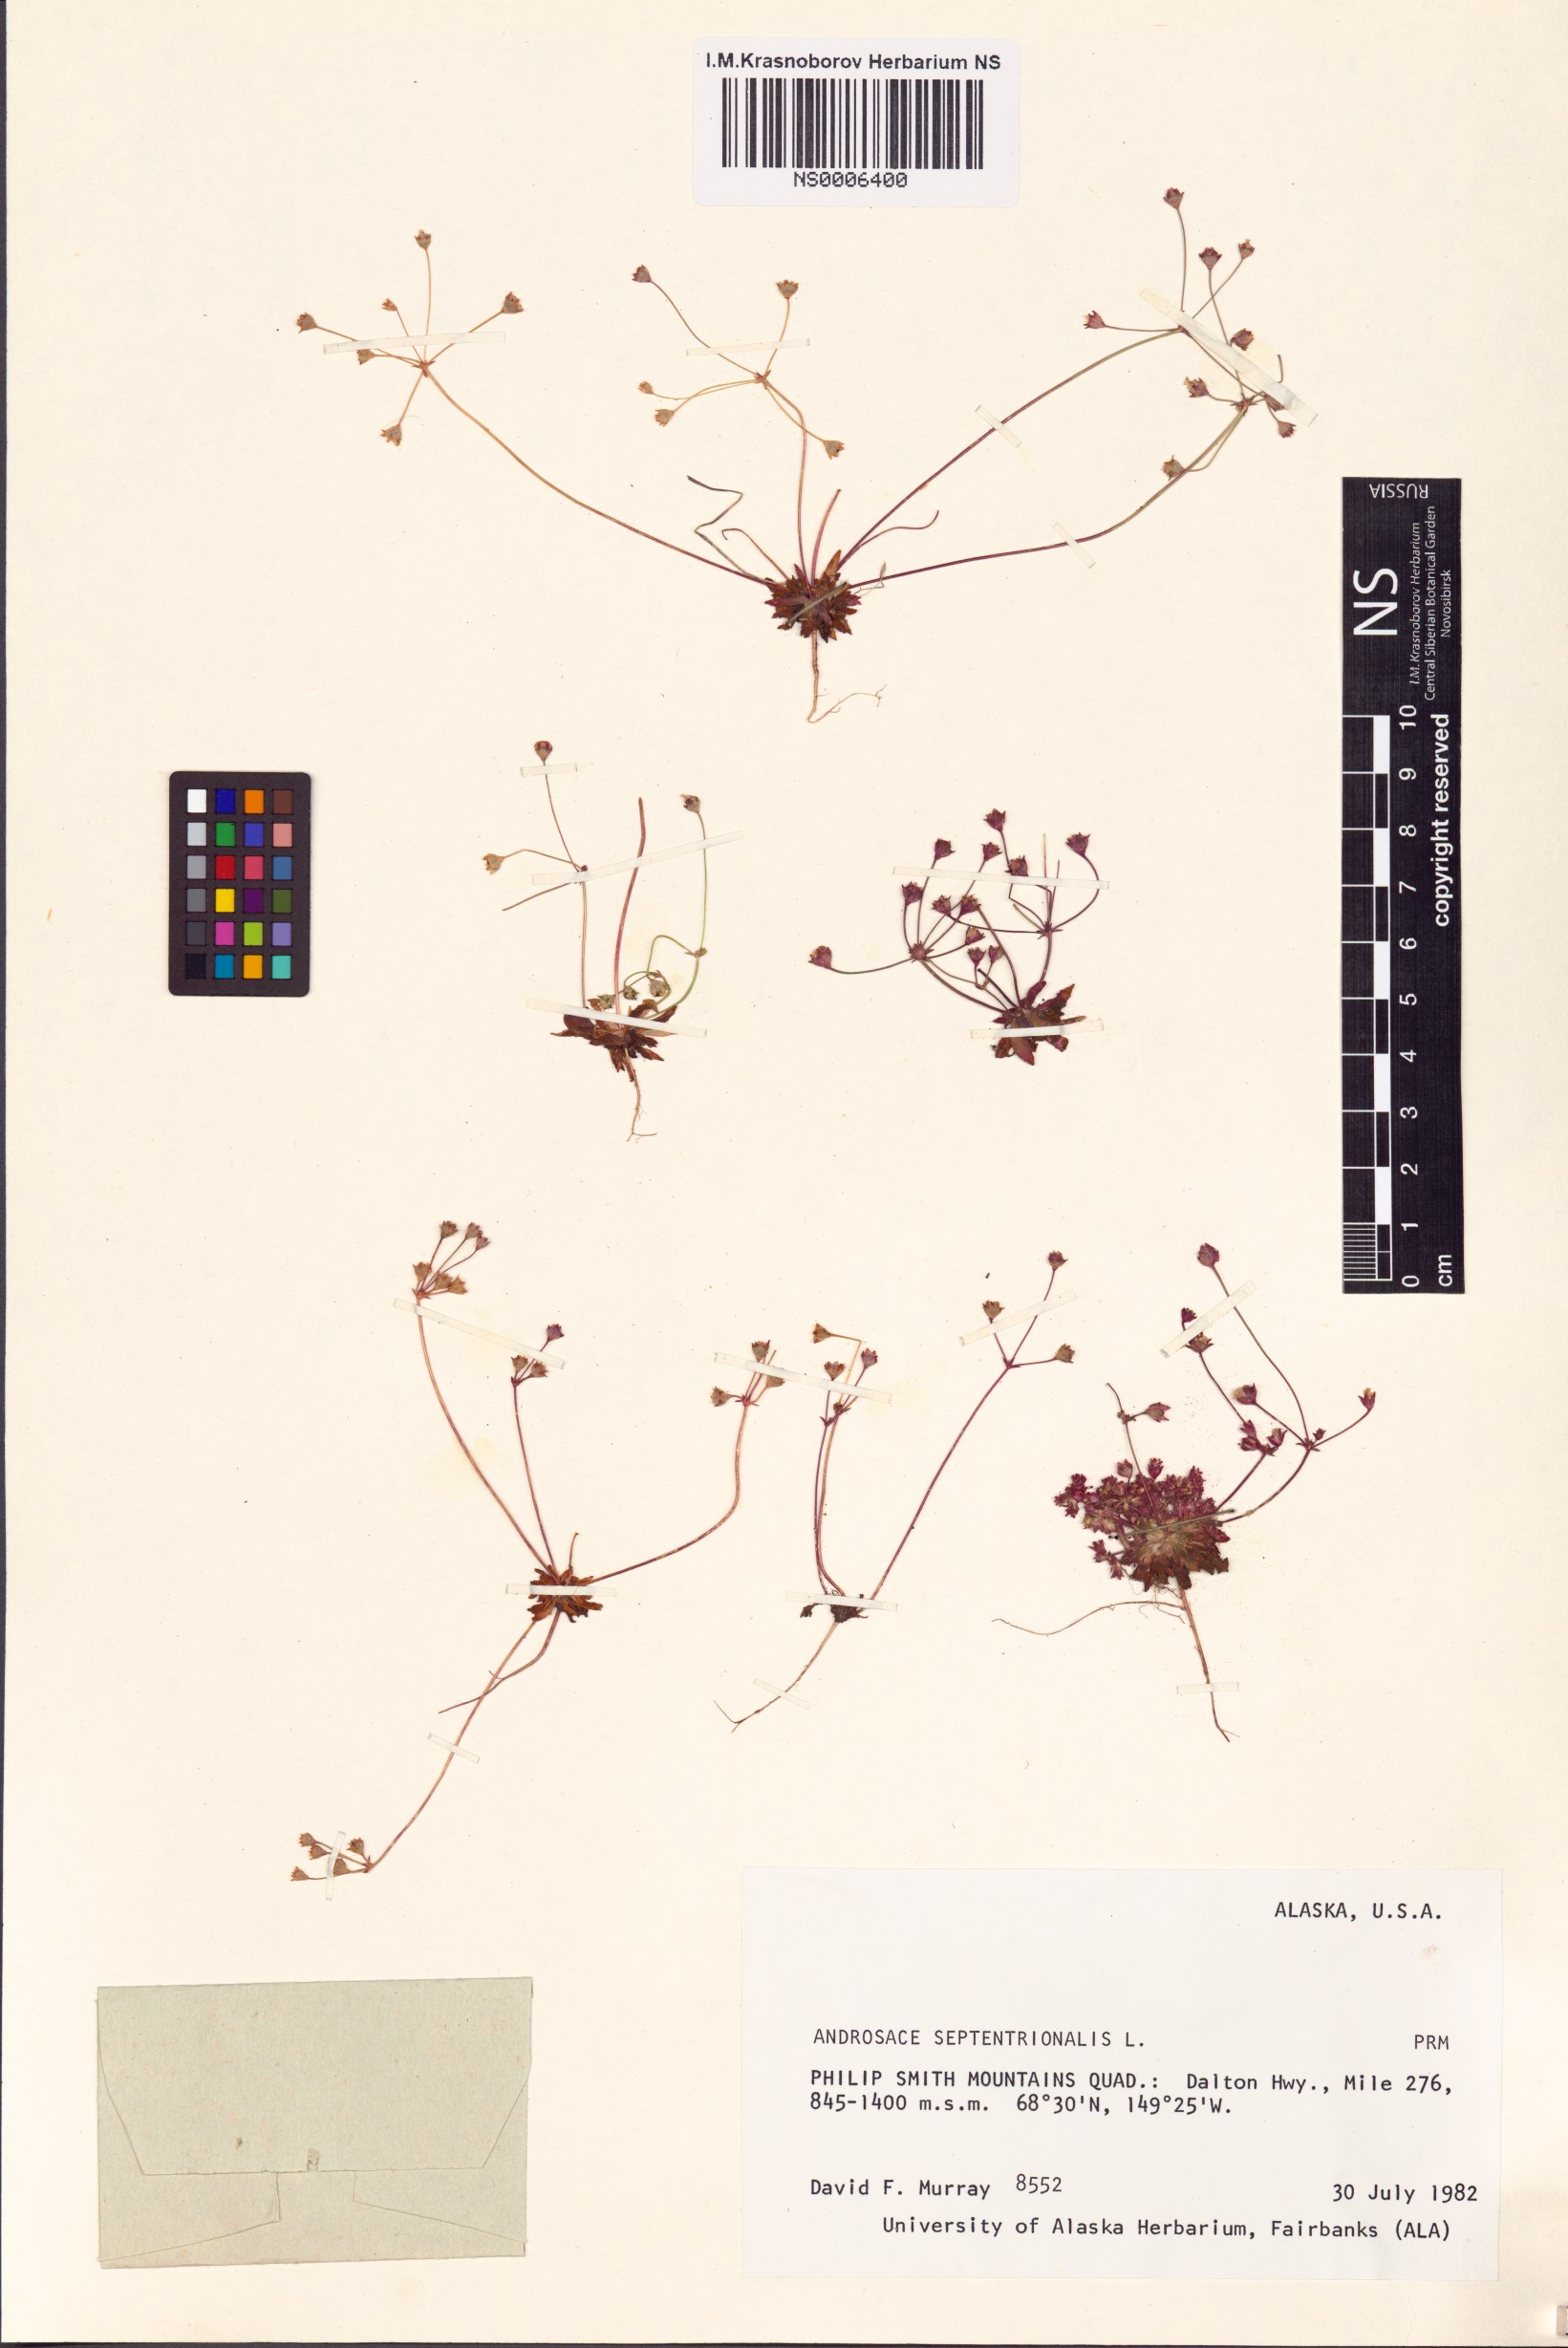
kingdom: Plantae
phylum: Tracheophyta
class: Magnoliopsida
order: Ericales
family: Primulaceae
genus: Androsace
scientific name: Androsace septentrionalis
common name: Hairy northern fairy-candelabra
